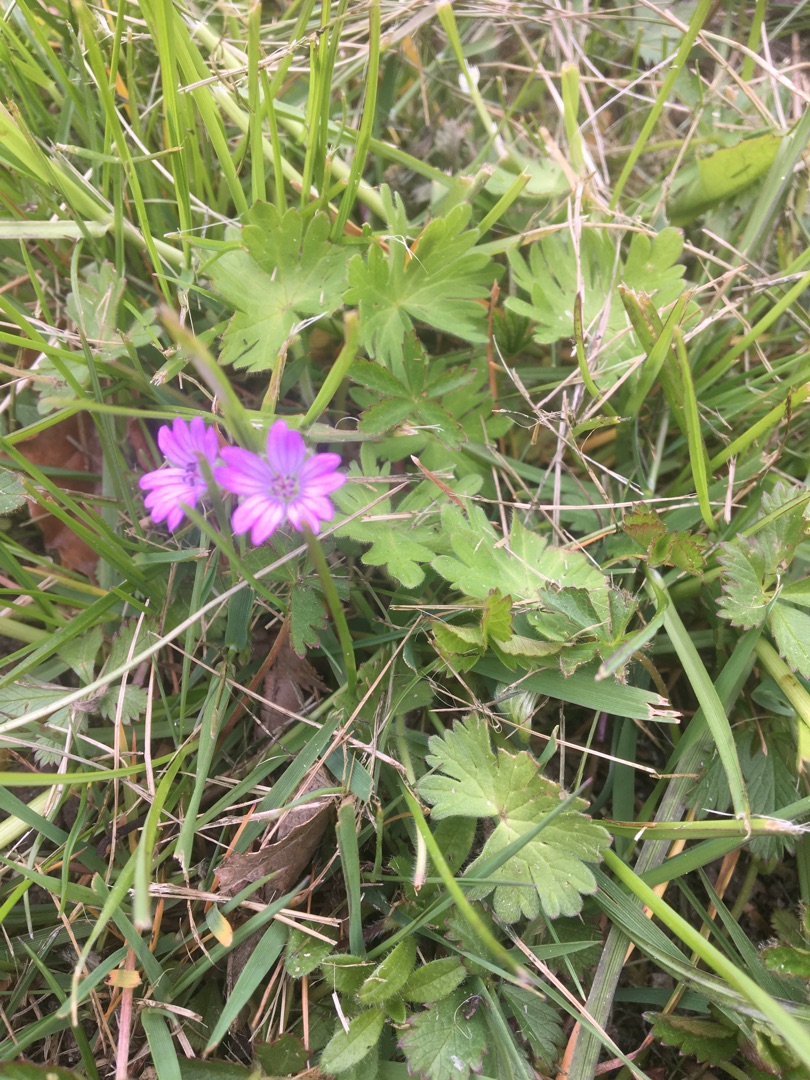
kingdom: Plantae
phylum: Tracheophyta
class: Magnoliopsida
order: Geraniales
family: Geraniaceae
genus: Geranium
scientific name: Geranium molle
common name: Blød storkenæb
